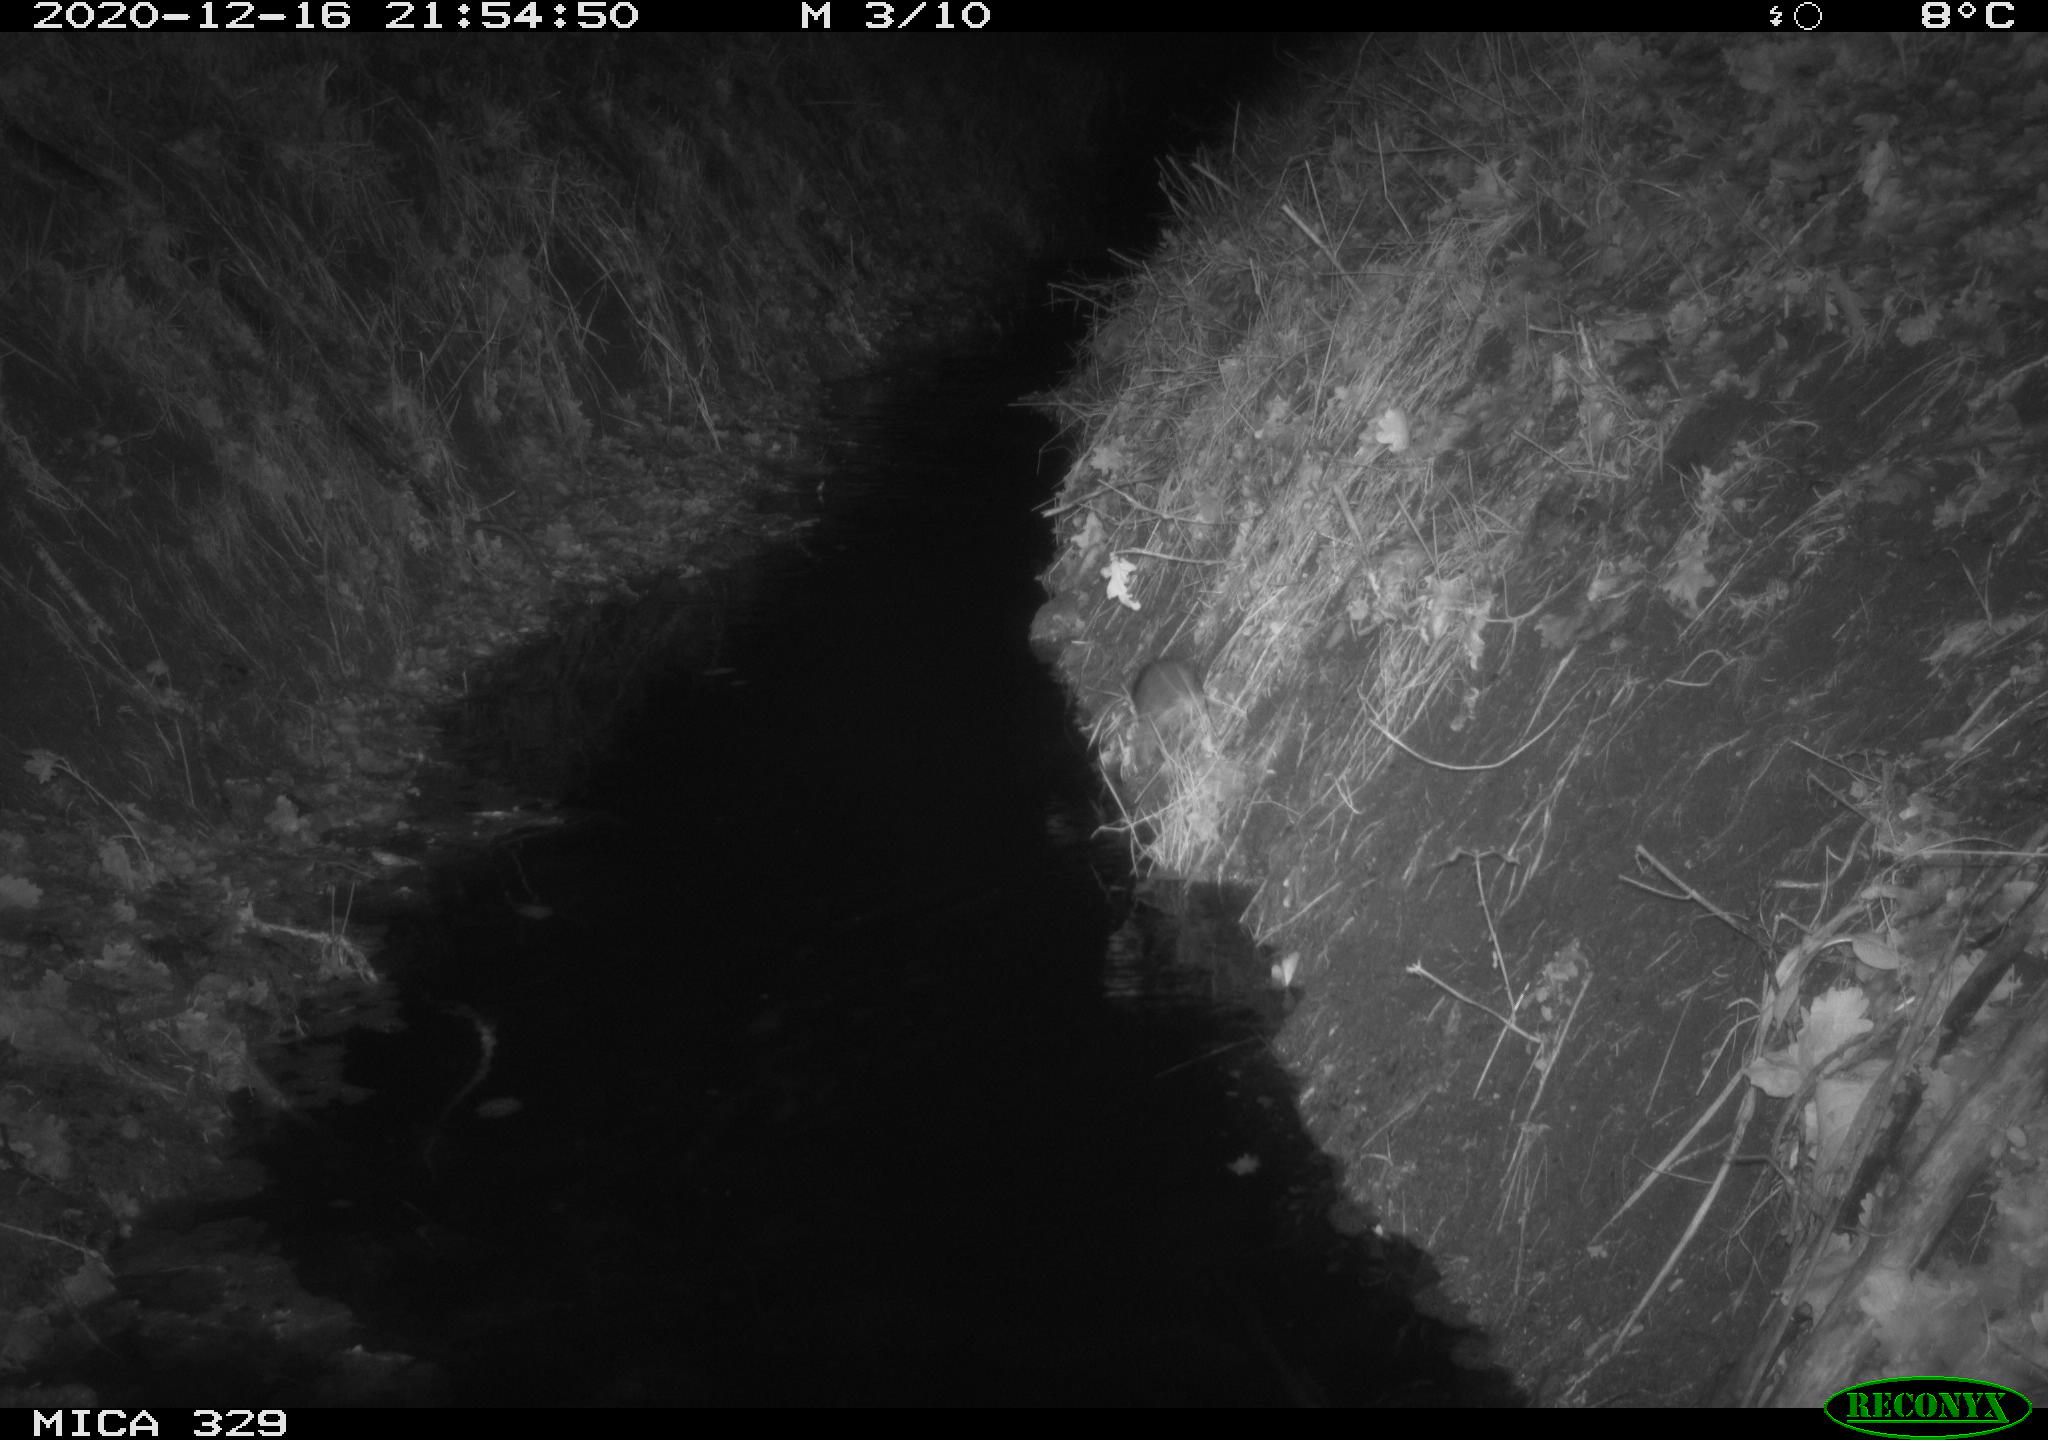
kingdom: Animalia
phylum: Chordata
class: Mammalia
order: Rodentia
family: Muridae
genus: Rattus
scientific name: Rattus norvegicus
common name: Brown rat
